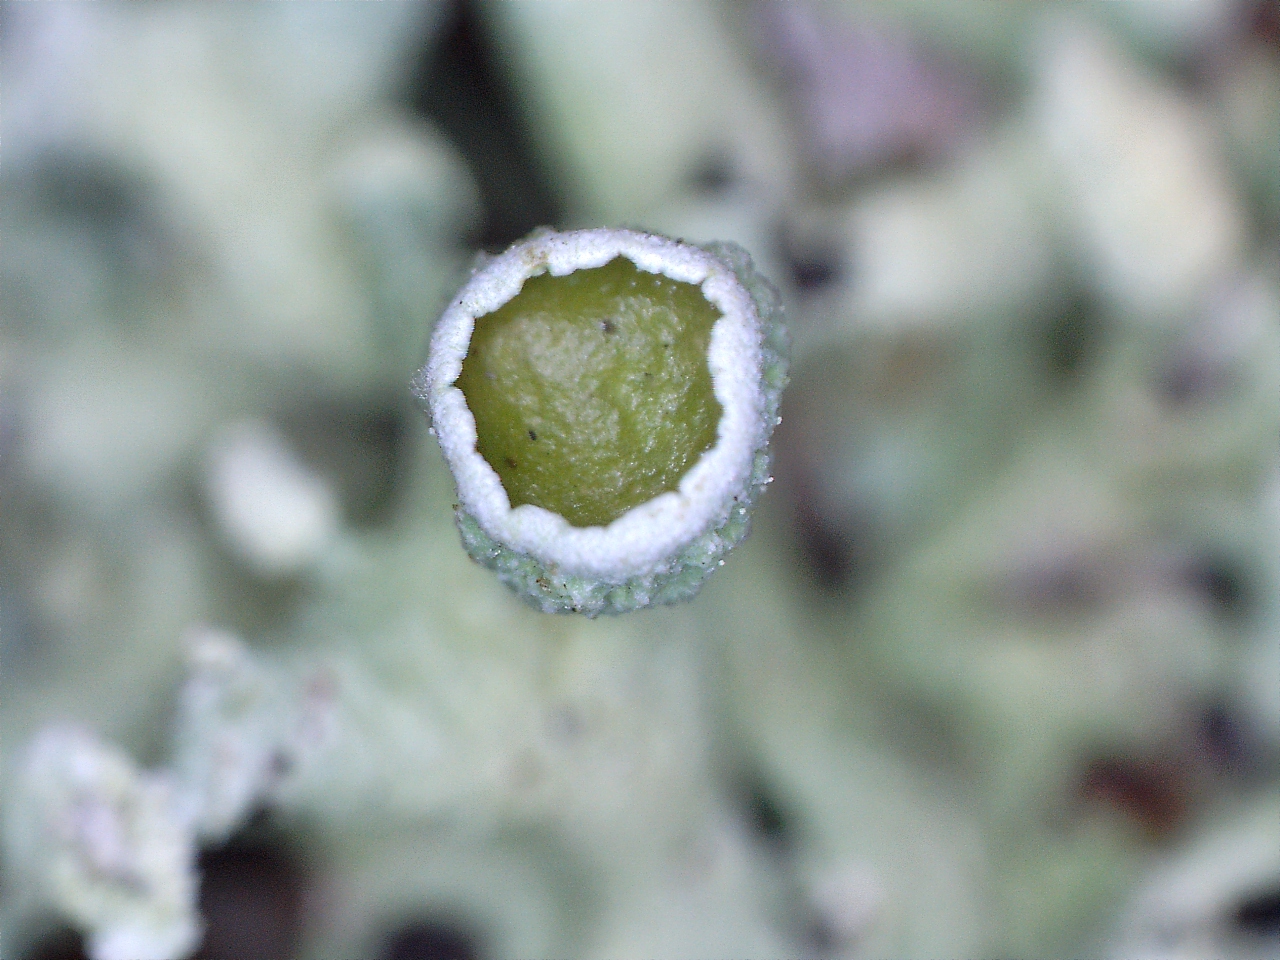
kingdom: Fungi
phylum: Ascomycota
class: Lecanoromycetes
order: Lecanorales
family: Parmeliaceae
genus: Hypogymnia
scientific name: Hypogymnia tubulosa
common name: finger-kvistlav
